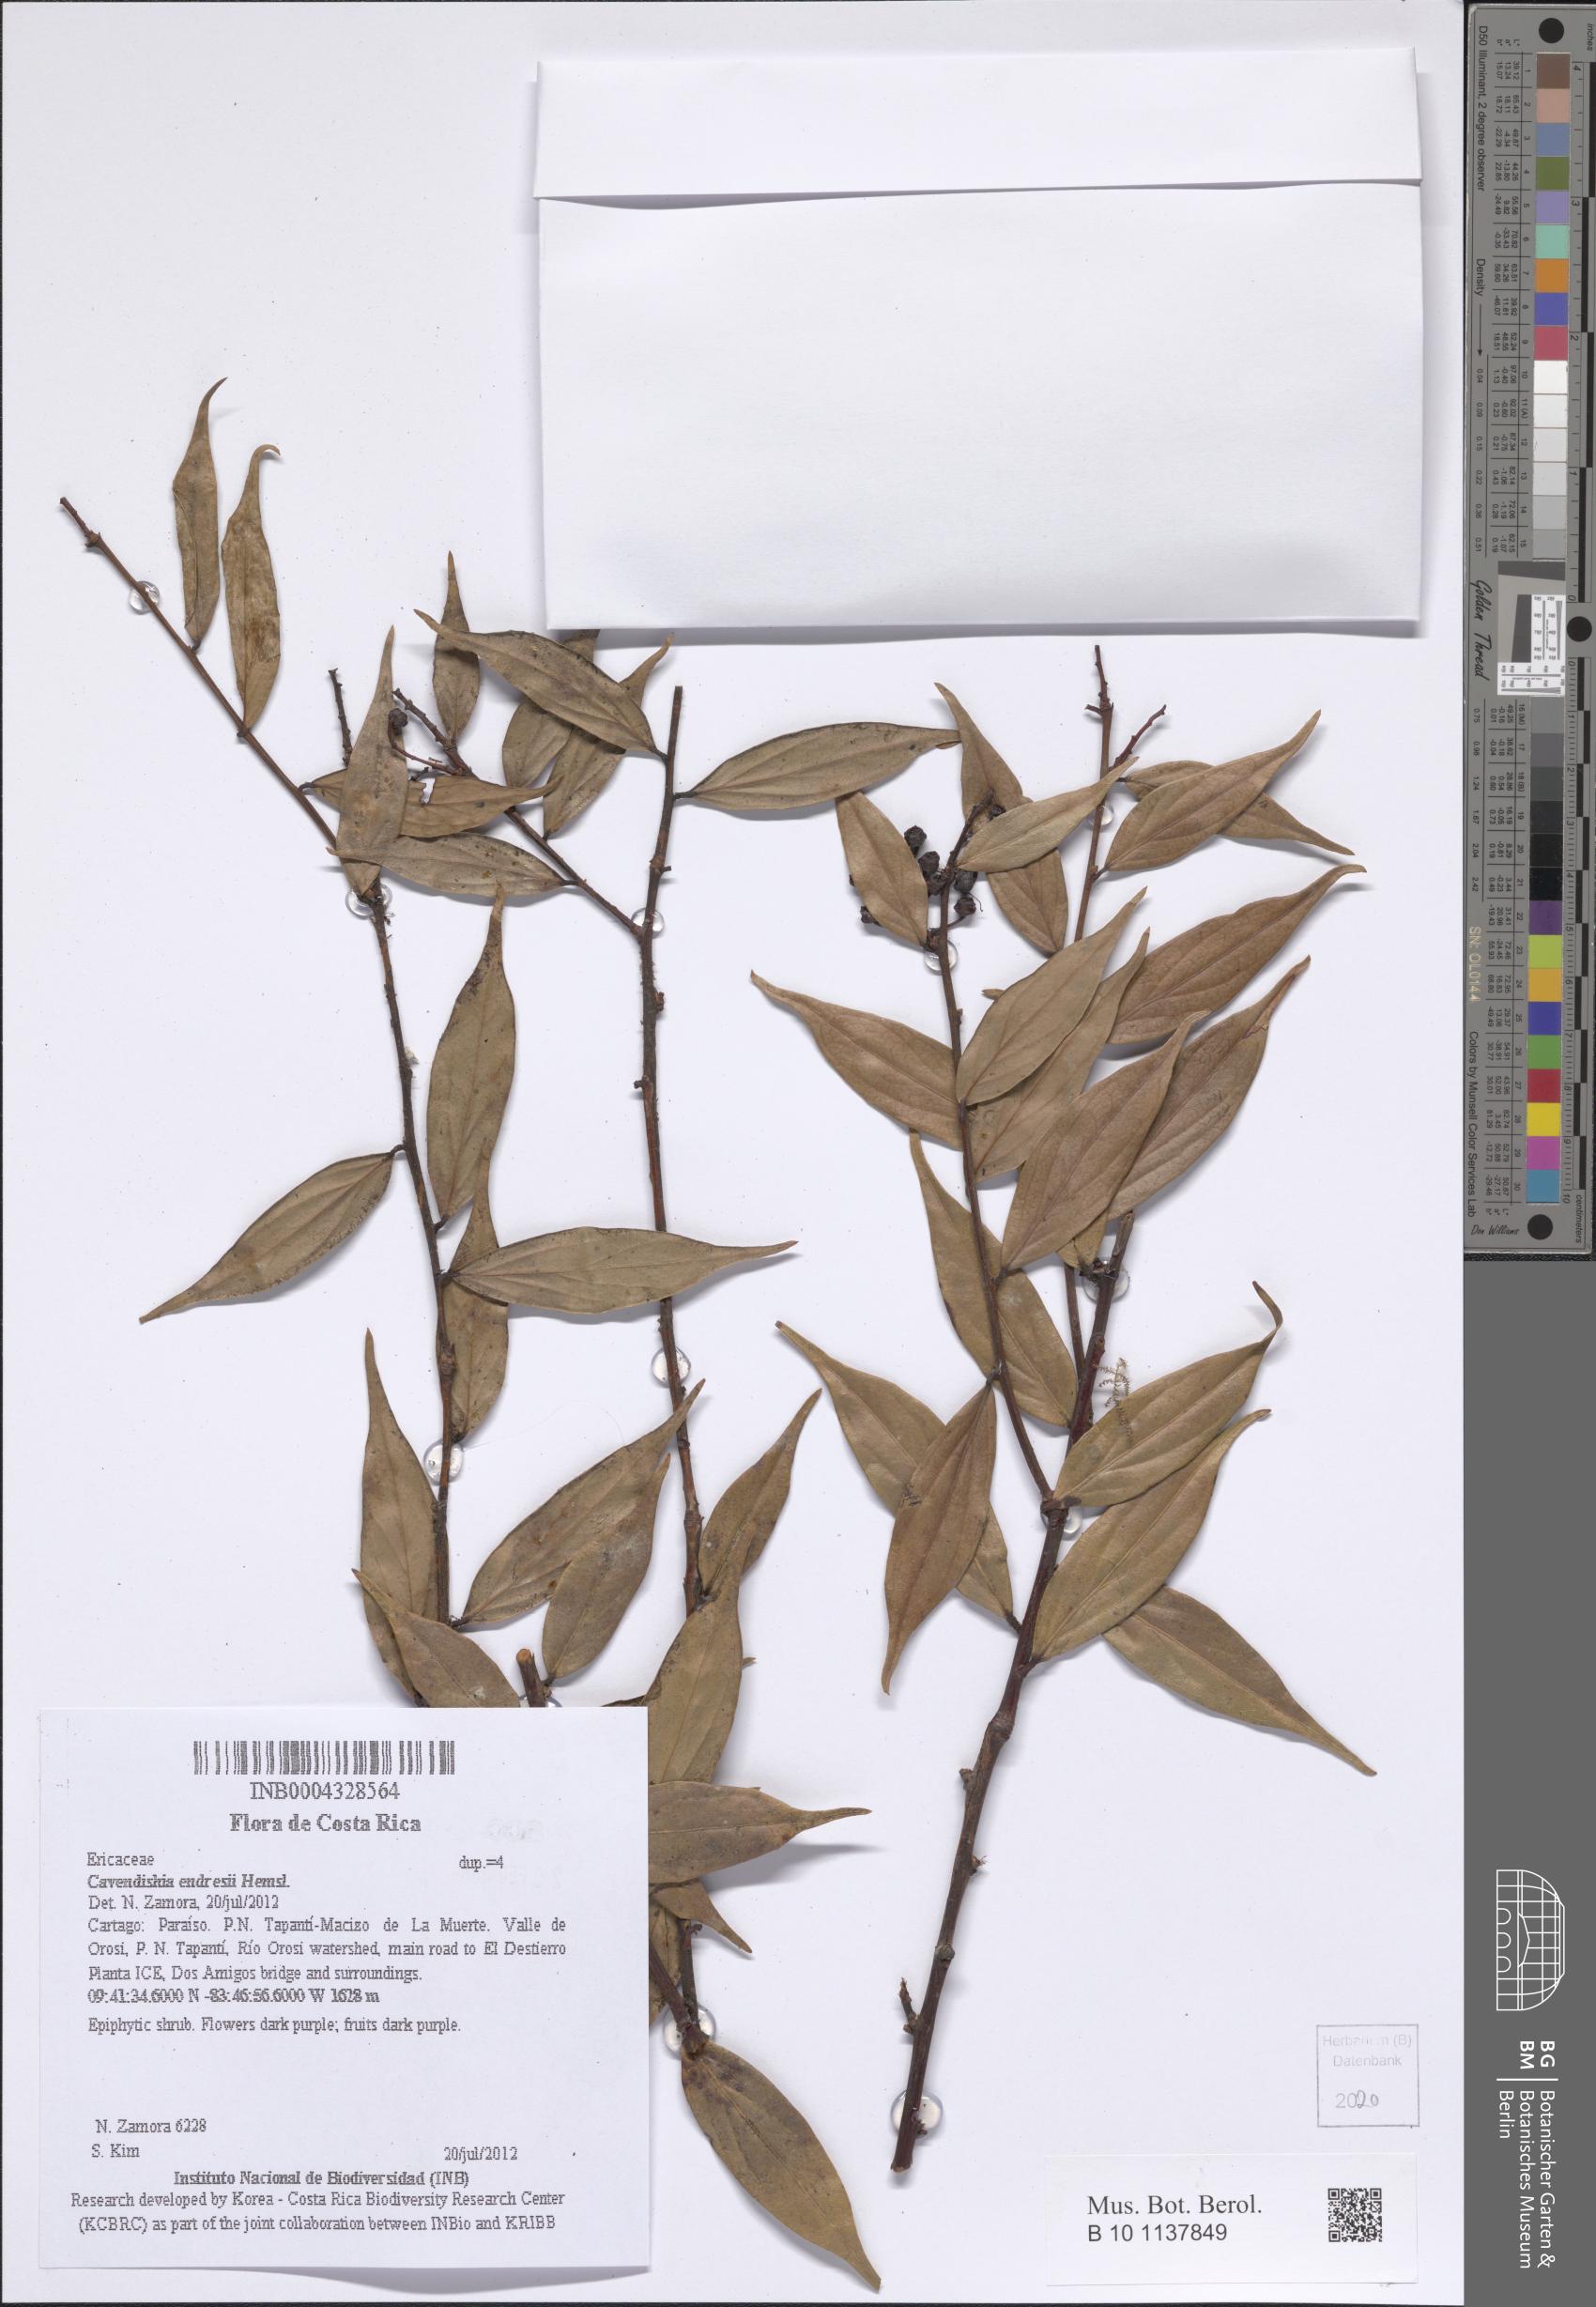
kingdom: Plantae
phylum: Tracheophyta
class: Magnoliopsida
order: Ericales
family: Ericaceae
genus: Cavendishia
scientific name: Cavendishia endresii
